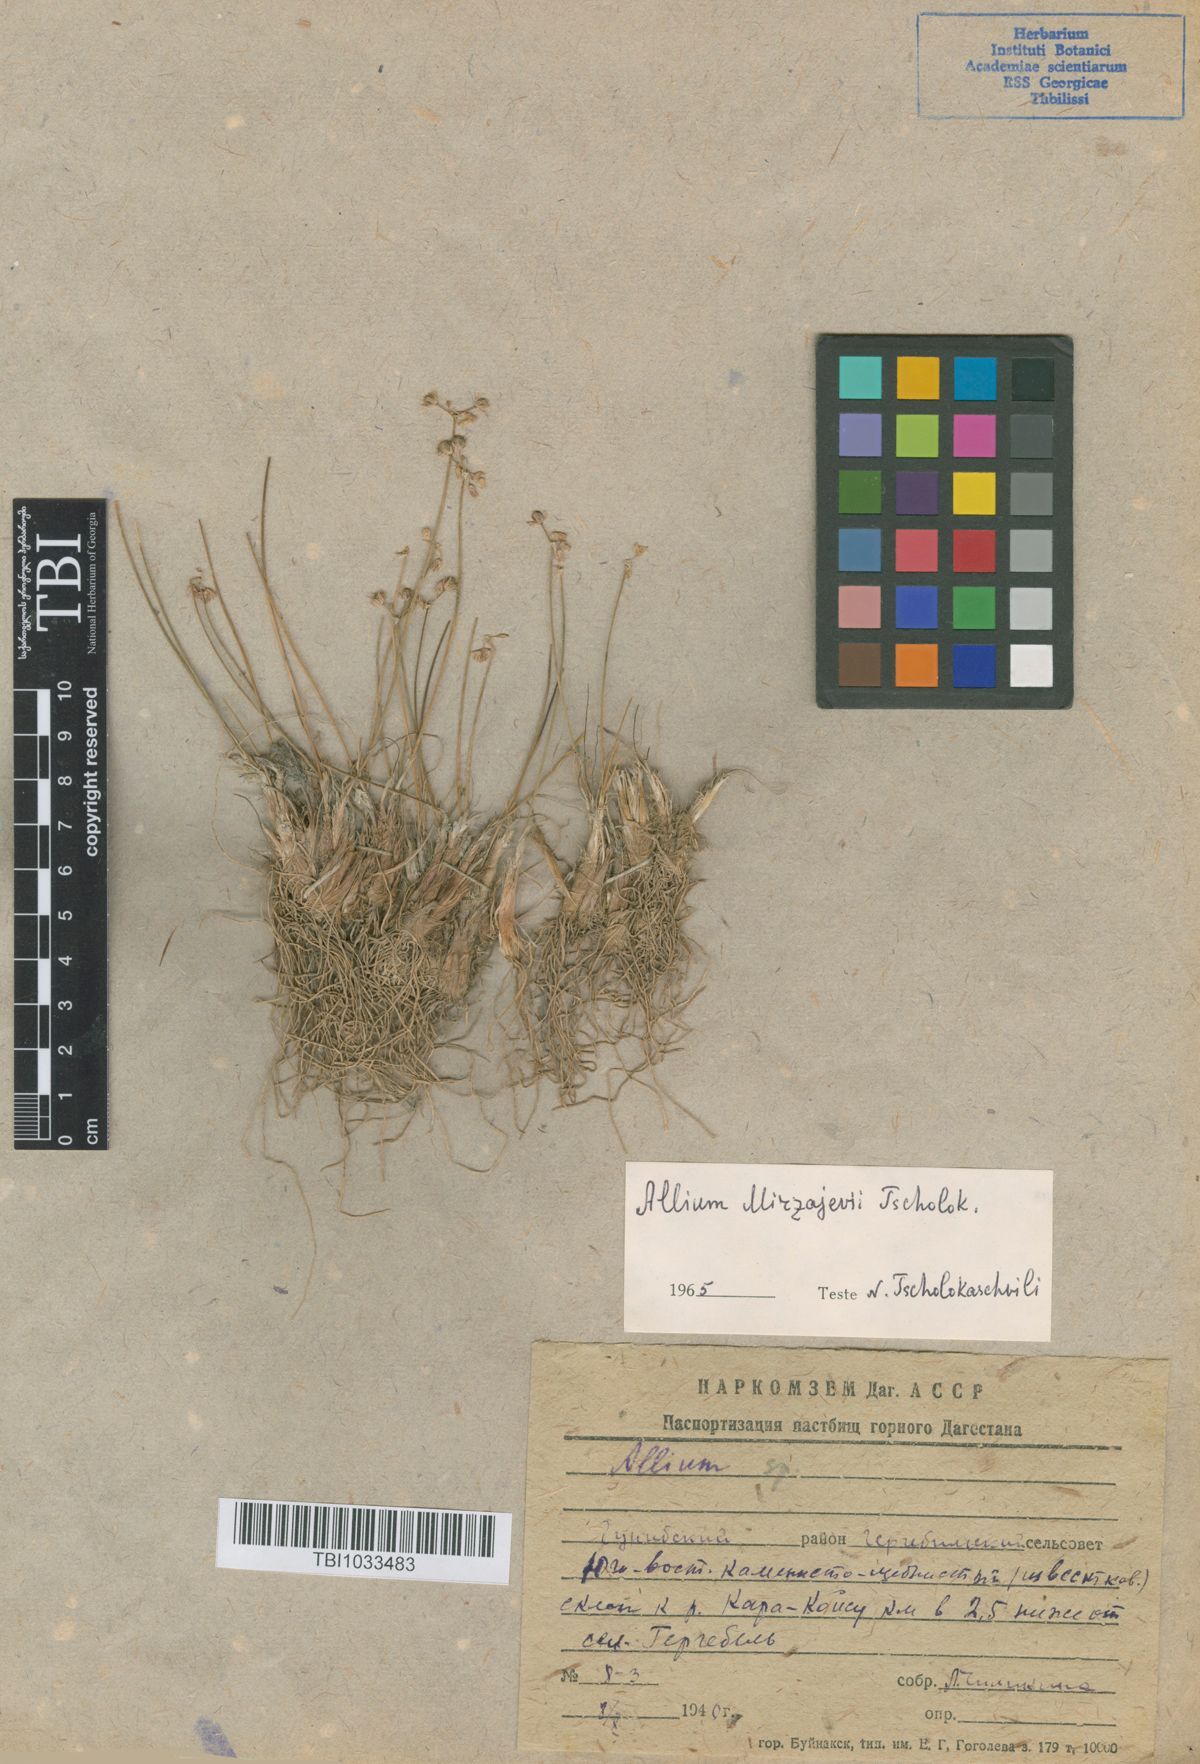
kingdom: Plantae
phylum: Tracheophyta
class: Liliopsida
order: Asparagales
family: Amaryllidaceae
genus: Allium
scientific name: Allium mirzajevii
